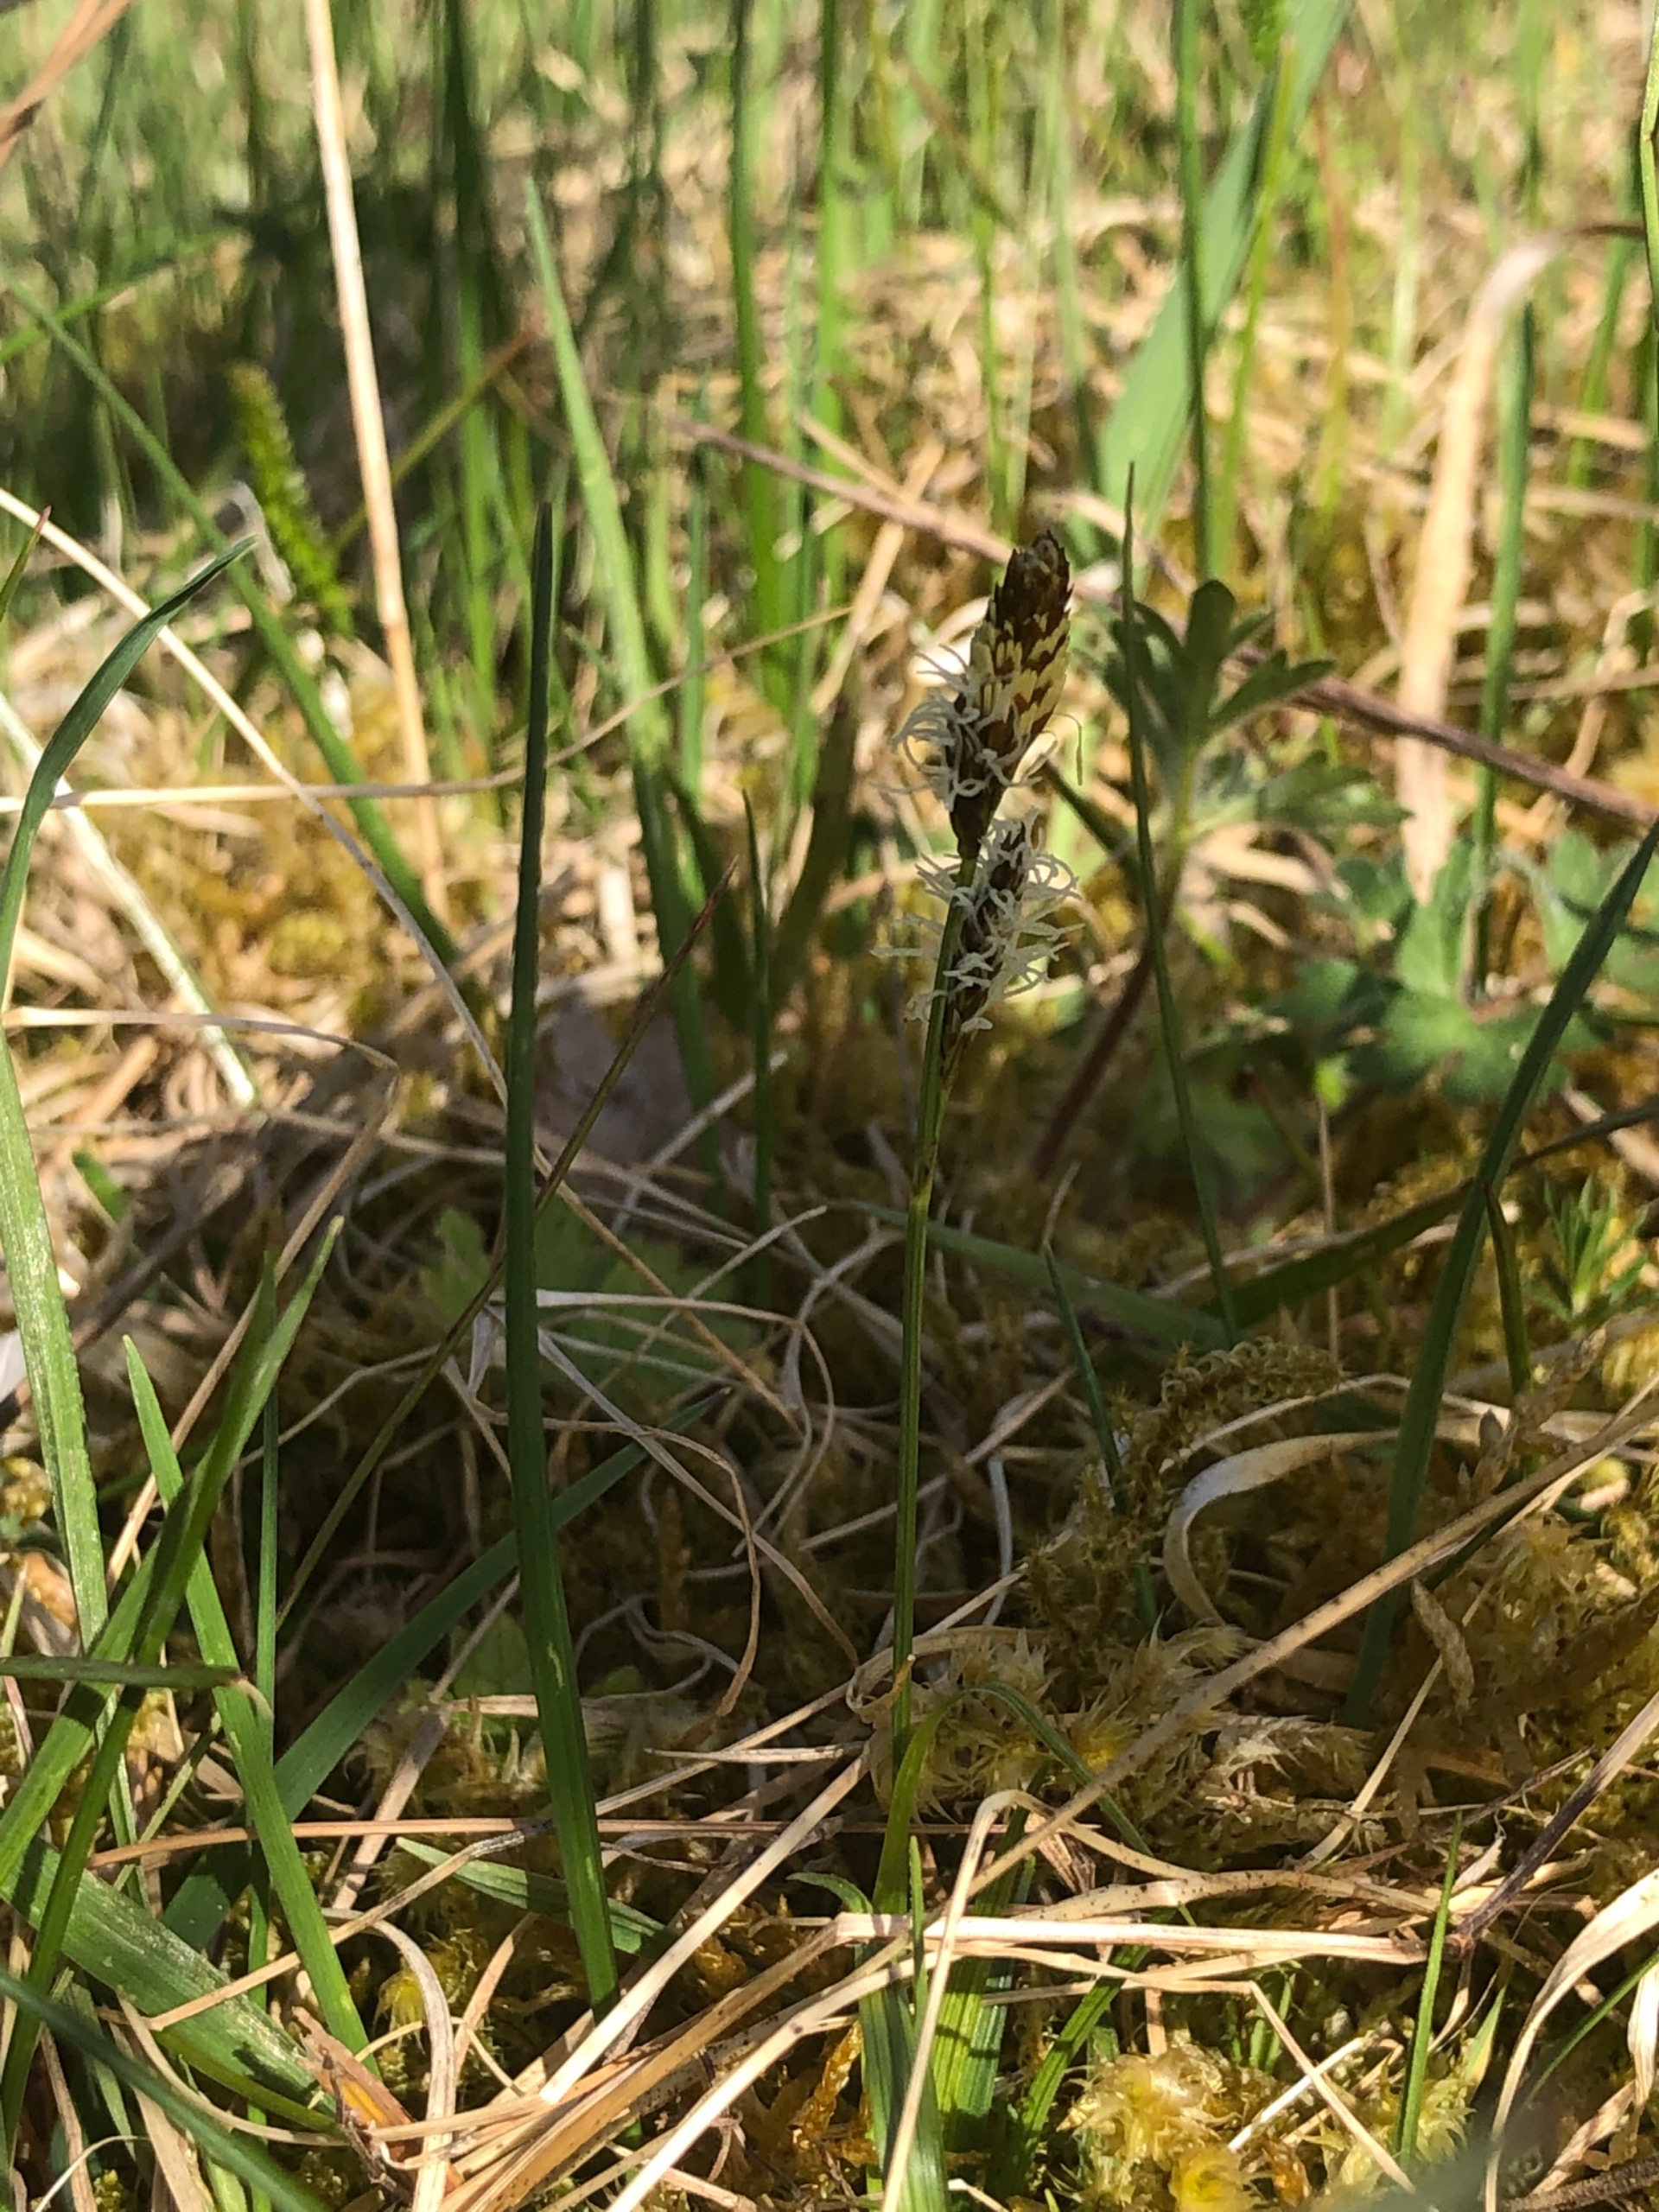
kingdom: Plantae
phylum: Tracheophyta
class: Liliopsida
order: Poales
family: Cyperaceae
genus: Carex
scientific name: Carex caryophyllea
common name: Vår-star
